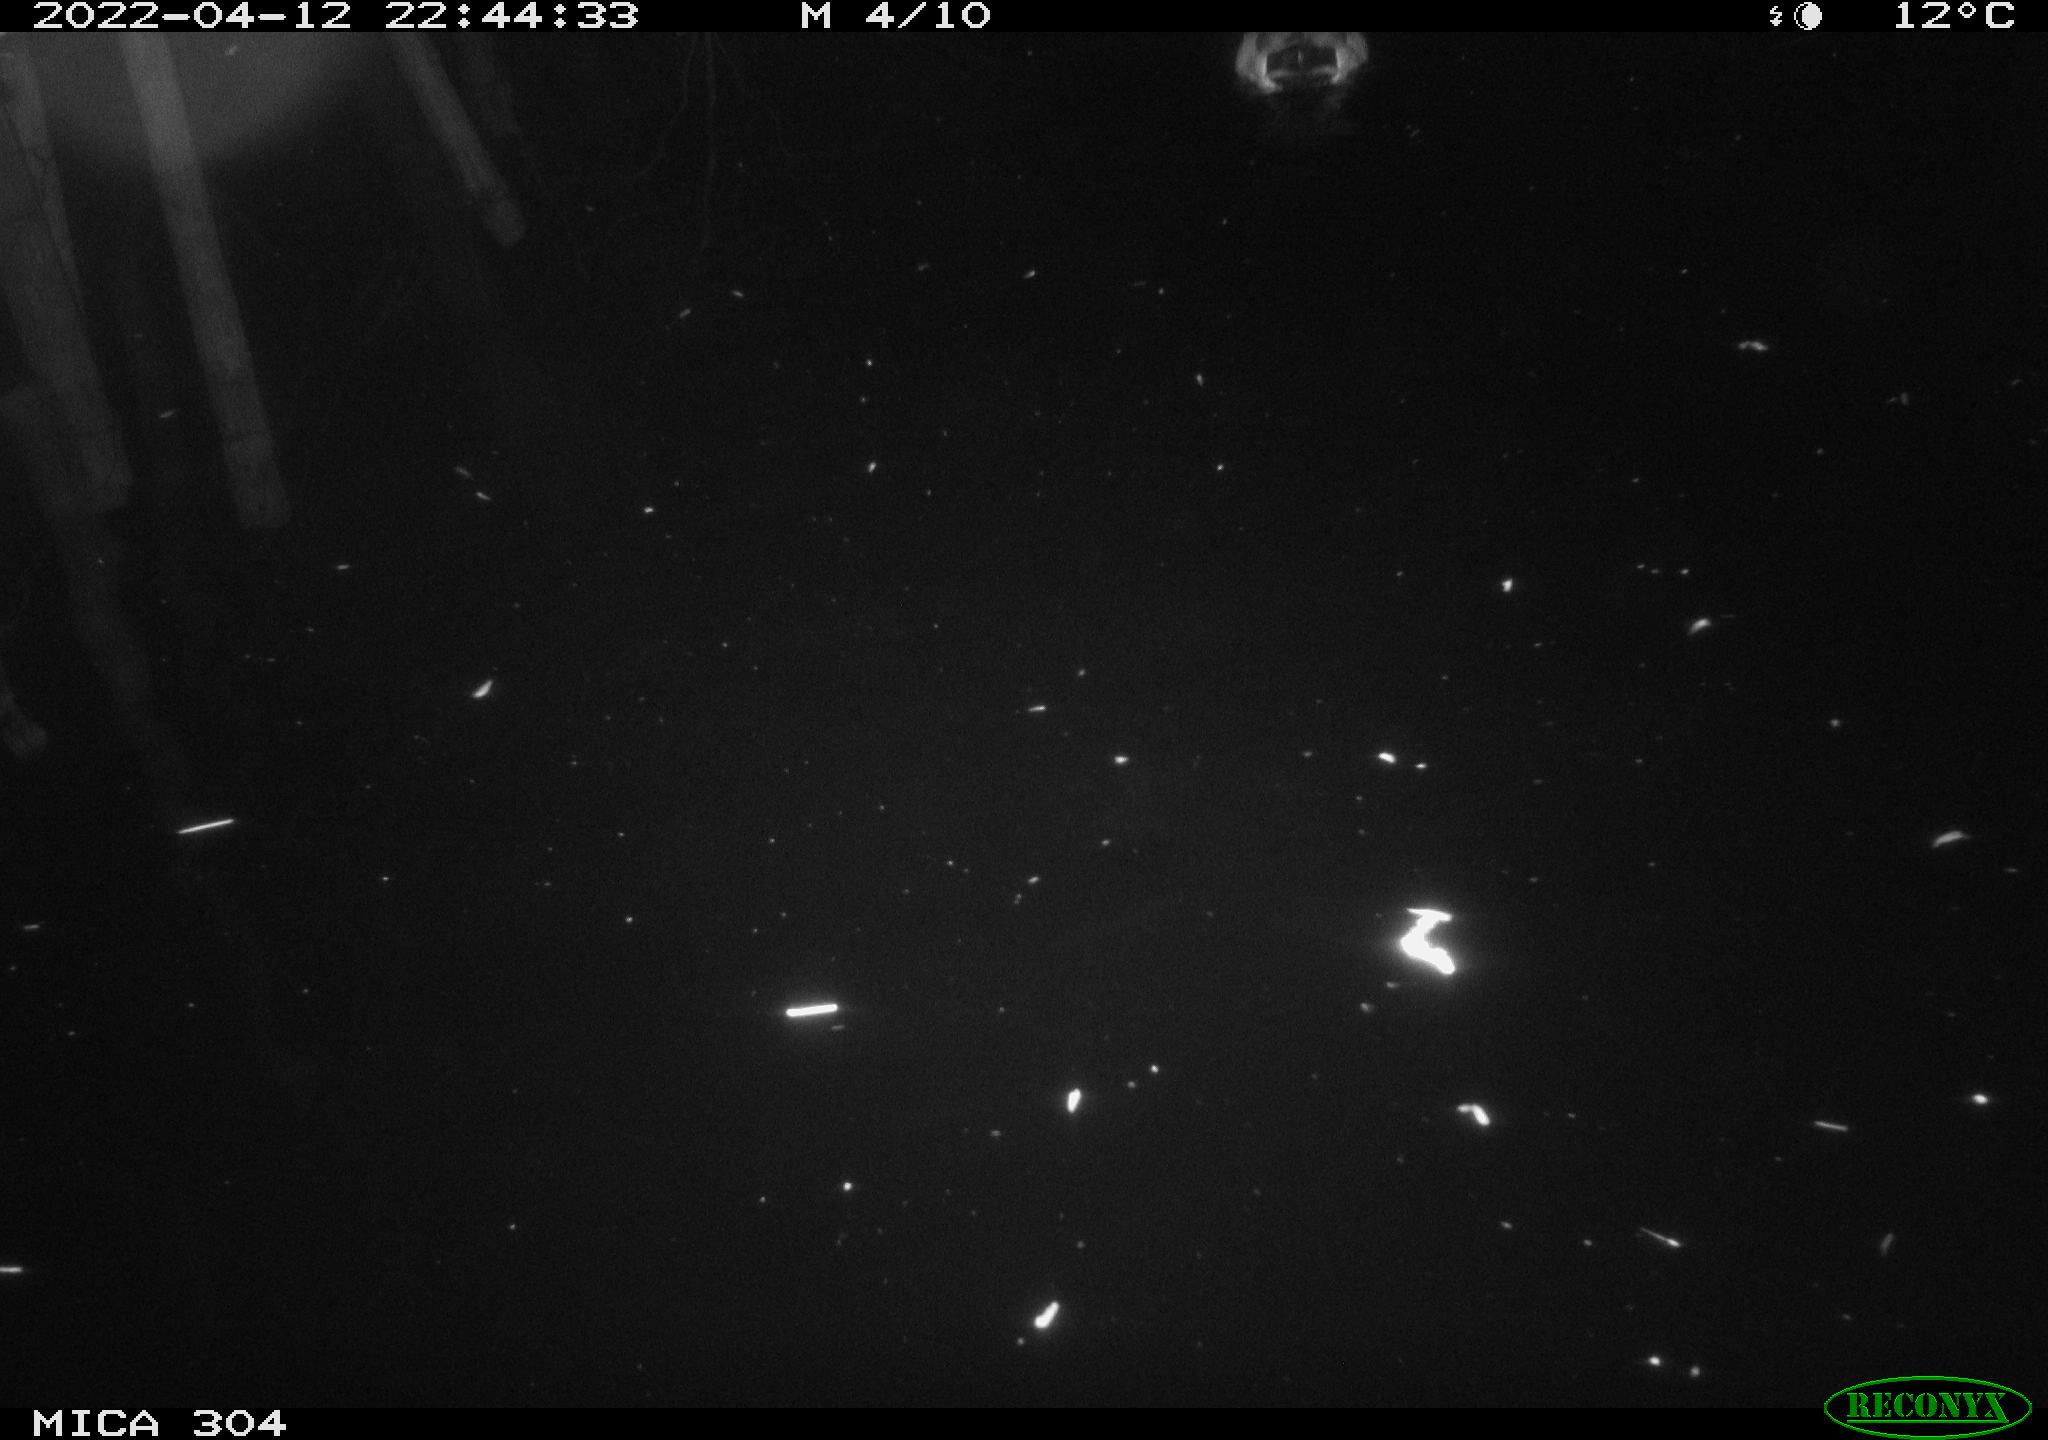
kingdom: Animalia
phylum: Chordata
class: Aves
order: Anseriformes
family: Anatidae
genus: Anas
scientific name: Anas platyrhynchos
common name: Mallard
